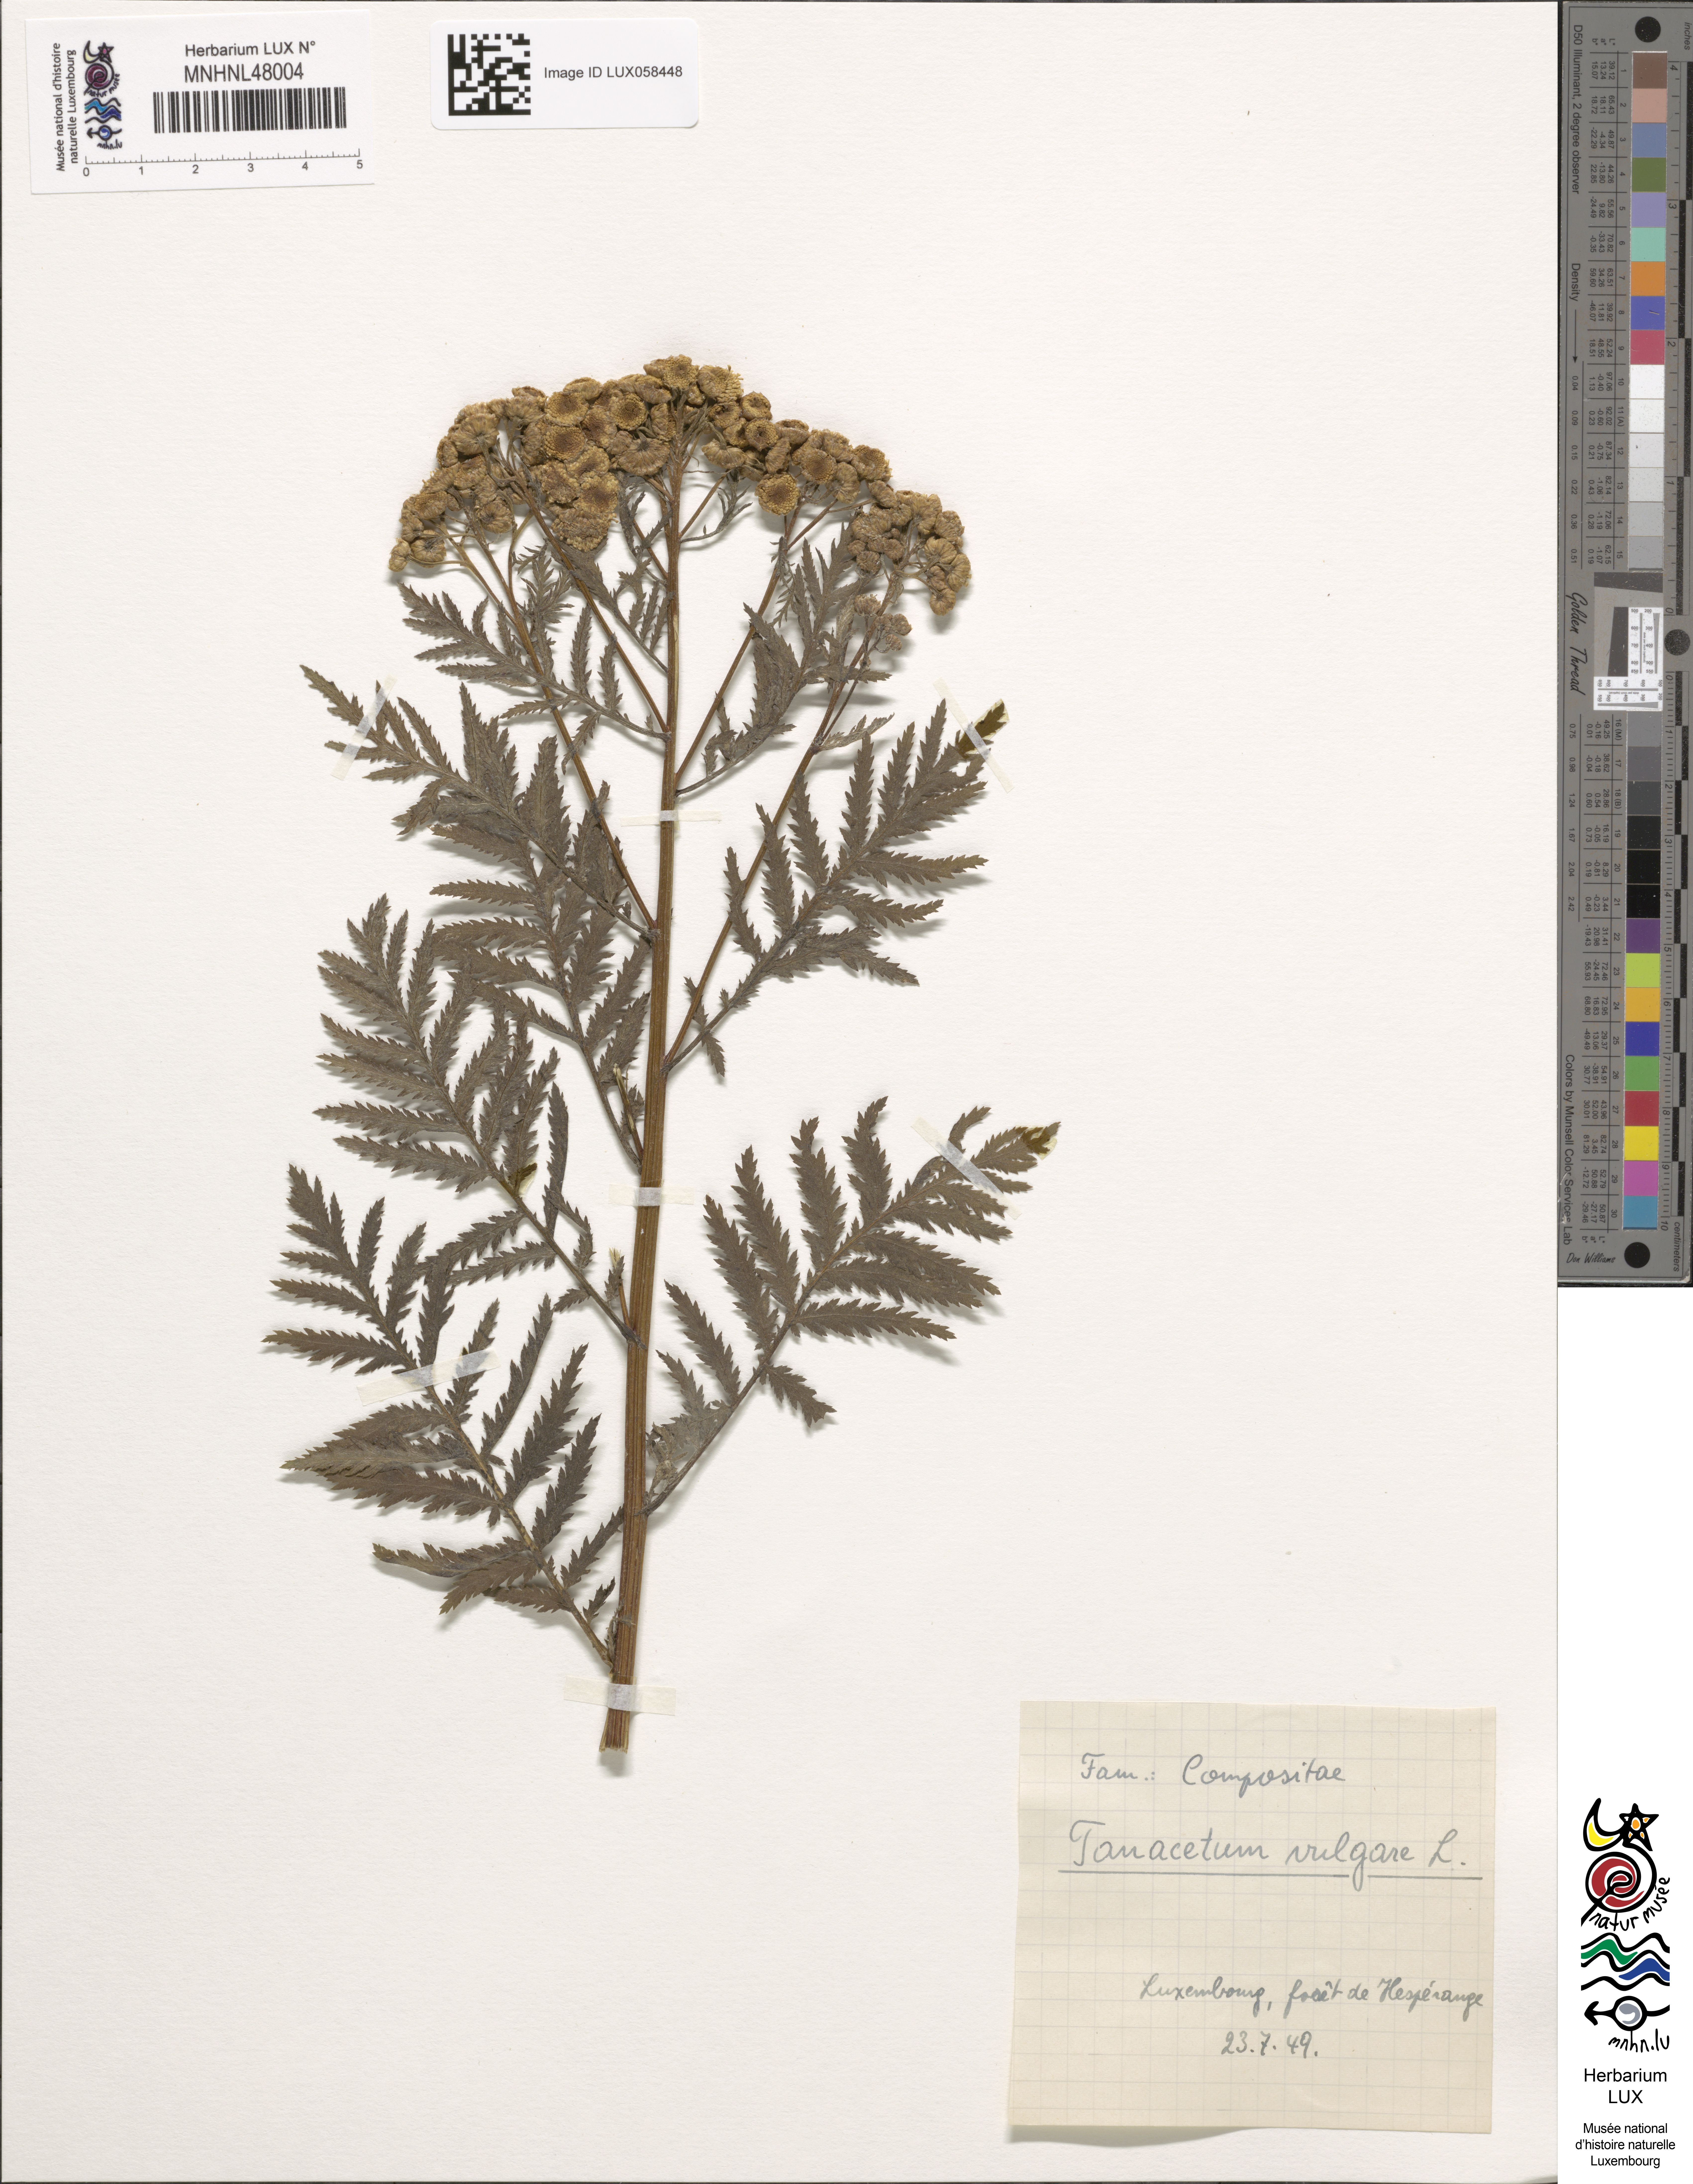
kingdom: Plantae
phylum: Tracheophyta
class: Magnoliopsida
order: Asterales
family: Asteraceae
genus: Tanacetum
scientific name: Tanacetum vulgare
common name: Common tansy
